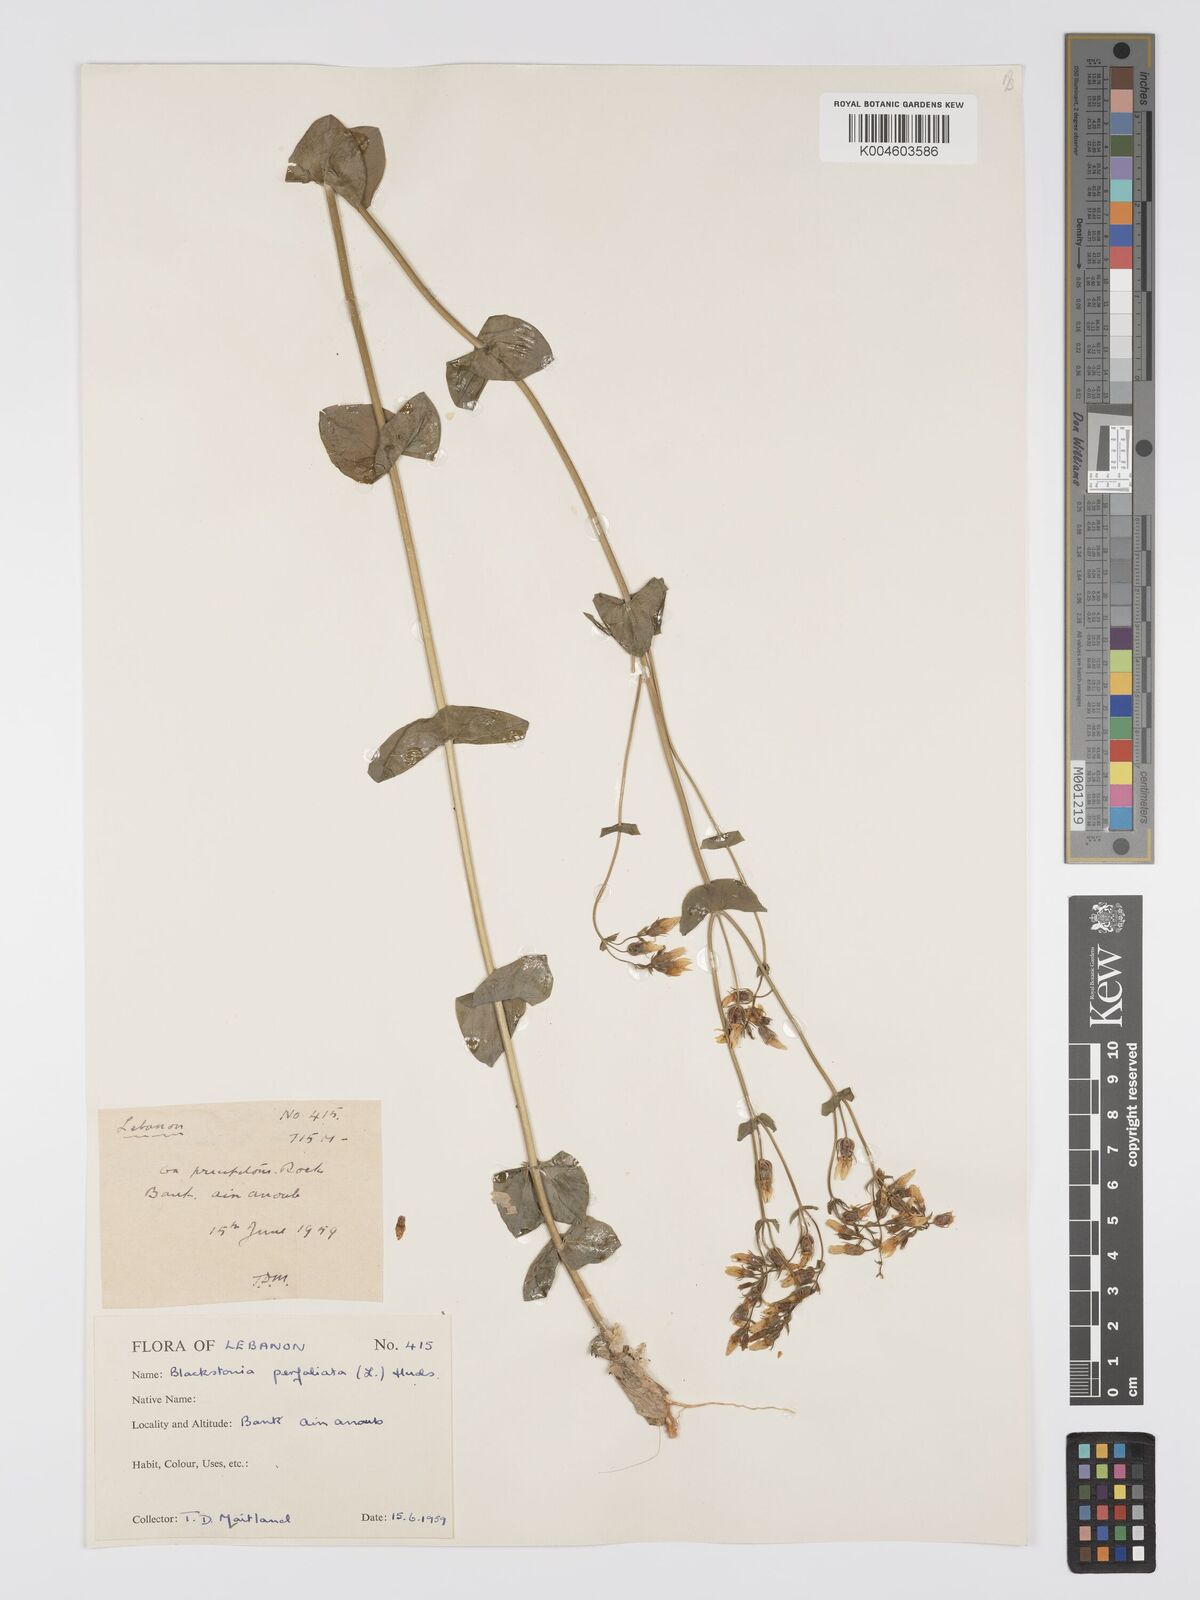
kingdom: Plantae
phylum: Tracheophyta
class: Magnoliopsida
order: Gentianales
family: Gentianaceae
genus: Blackstonia
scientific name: Blackstonia perfoliata
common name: Yellow-wort
